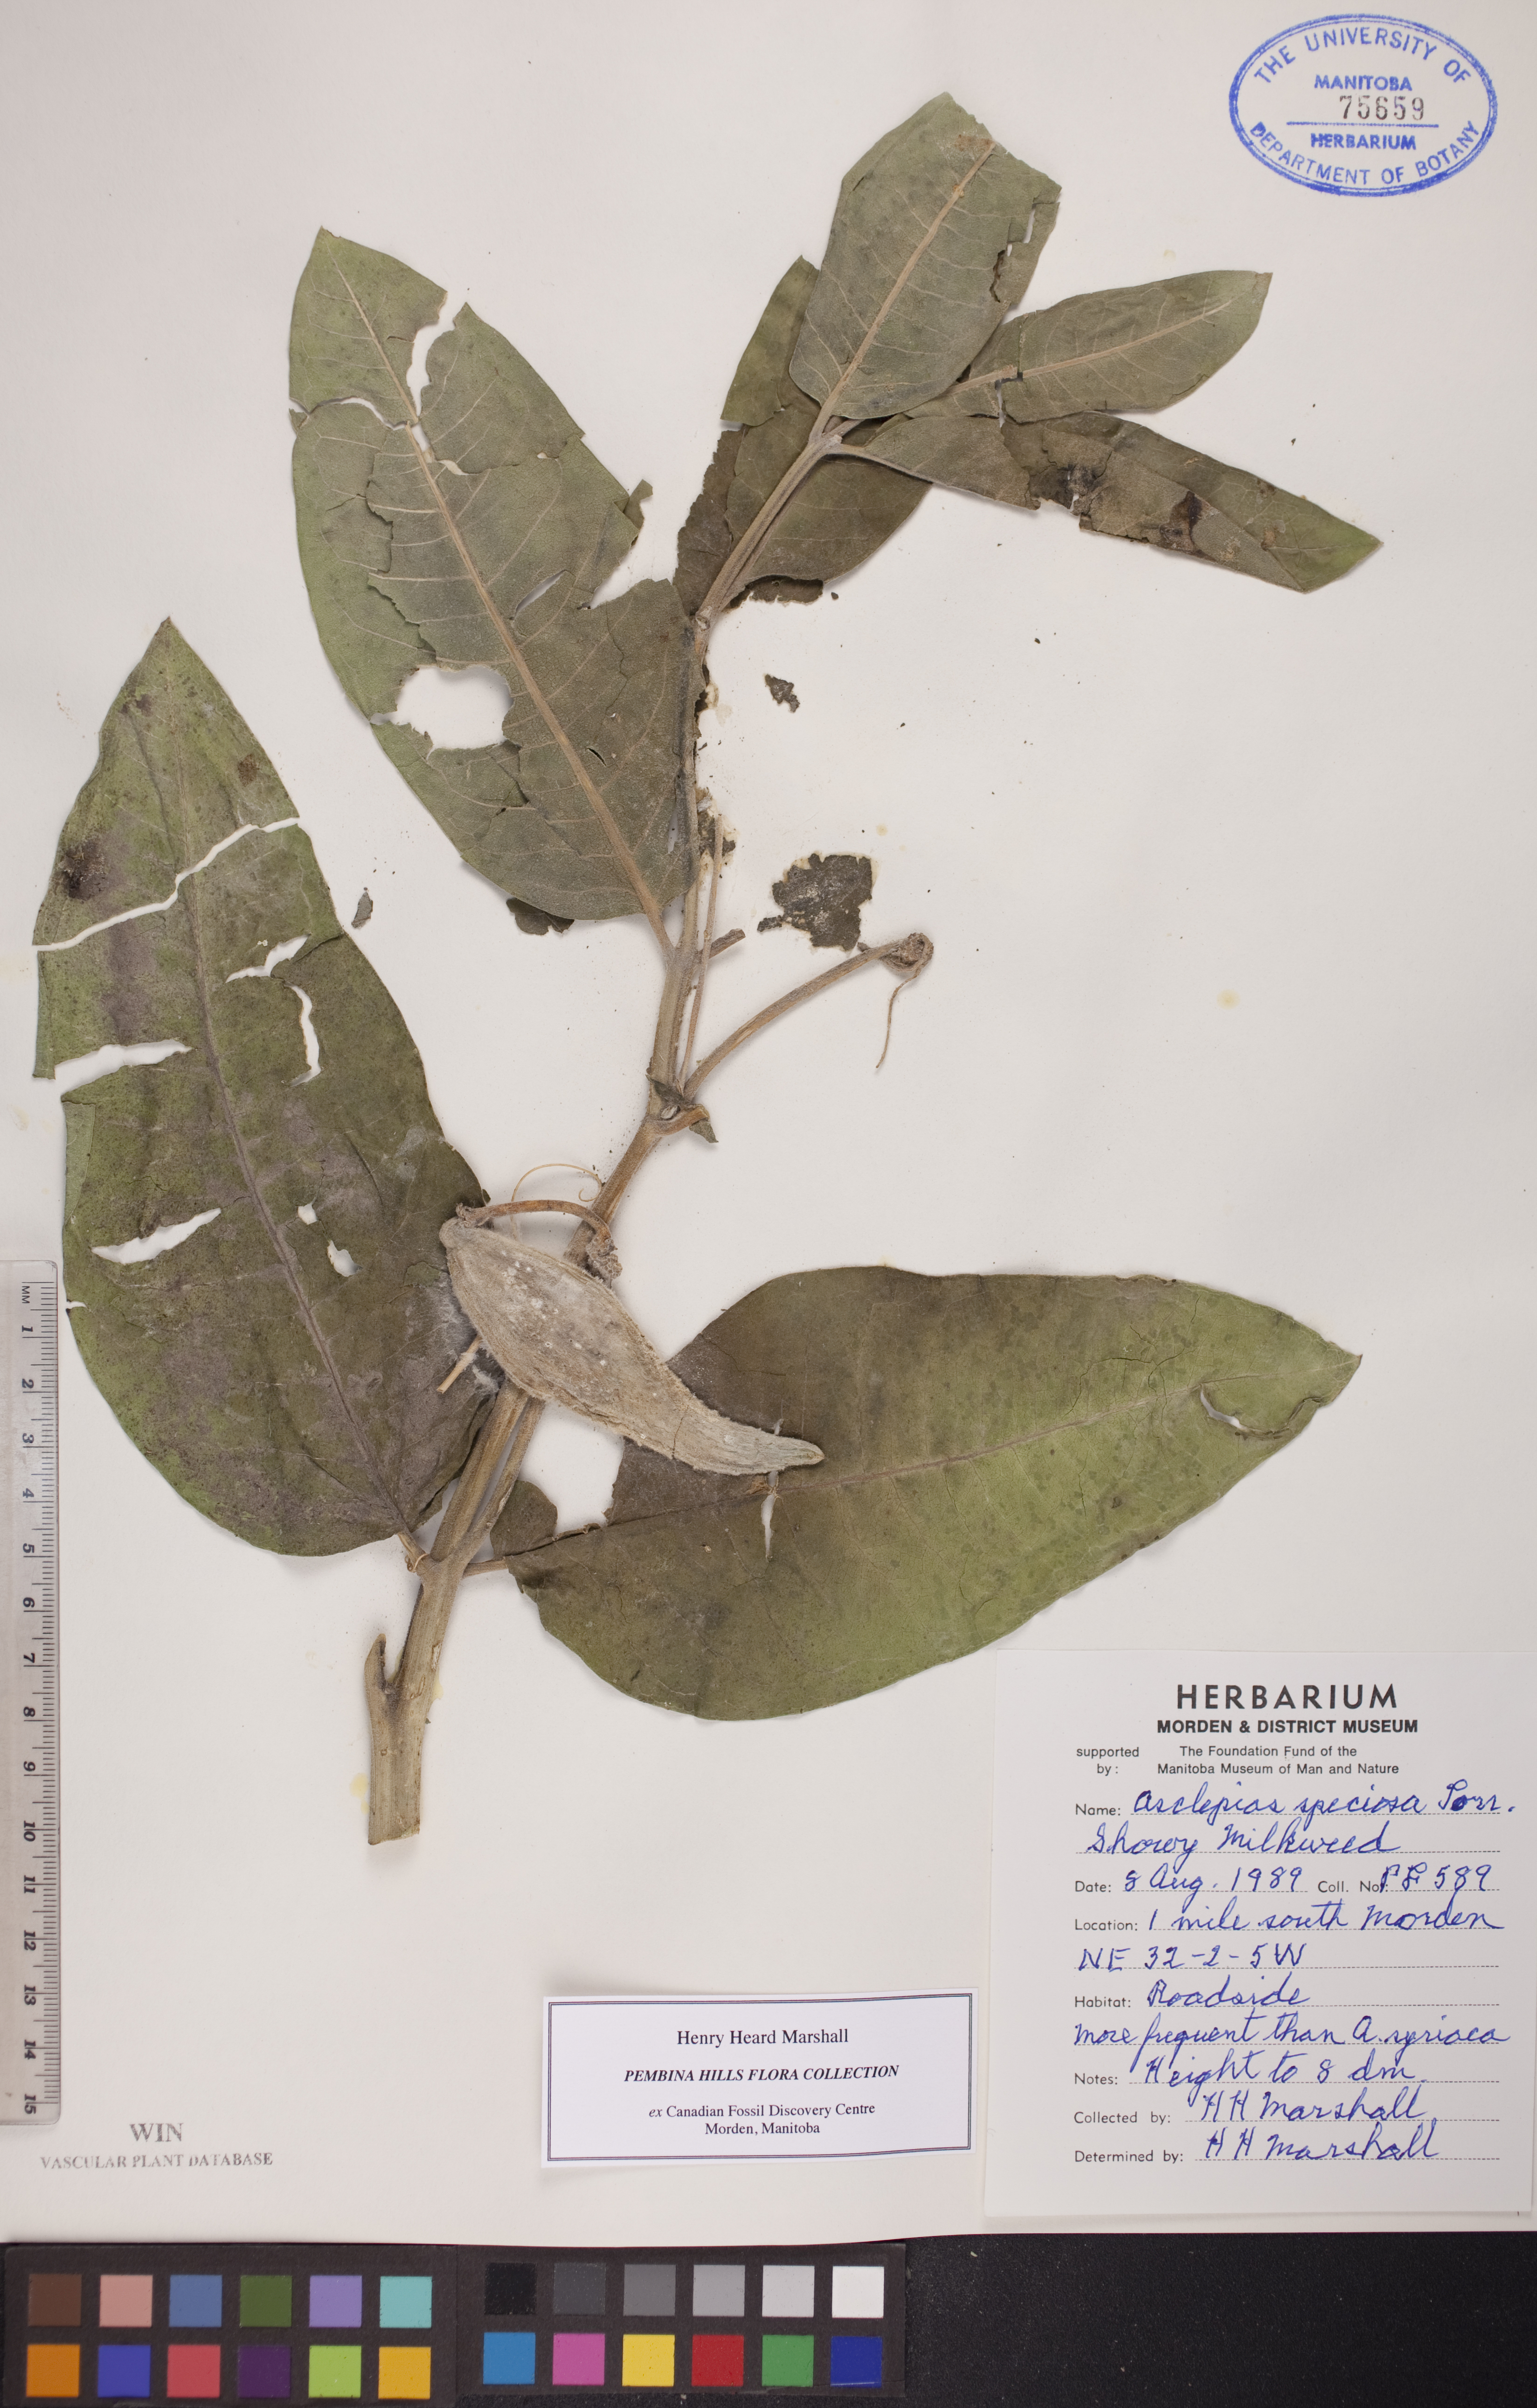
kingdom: Plantae
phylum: Tracheophyta
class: Magnoliopsida
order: Gentianales
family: Apocynaceae
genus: Asclepias
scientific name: Asclepias speciosa
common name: Showy milkweed
